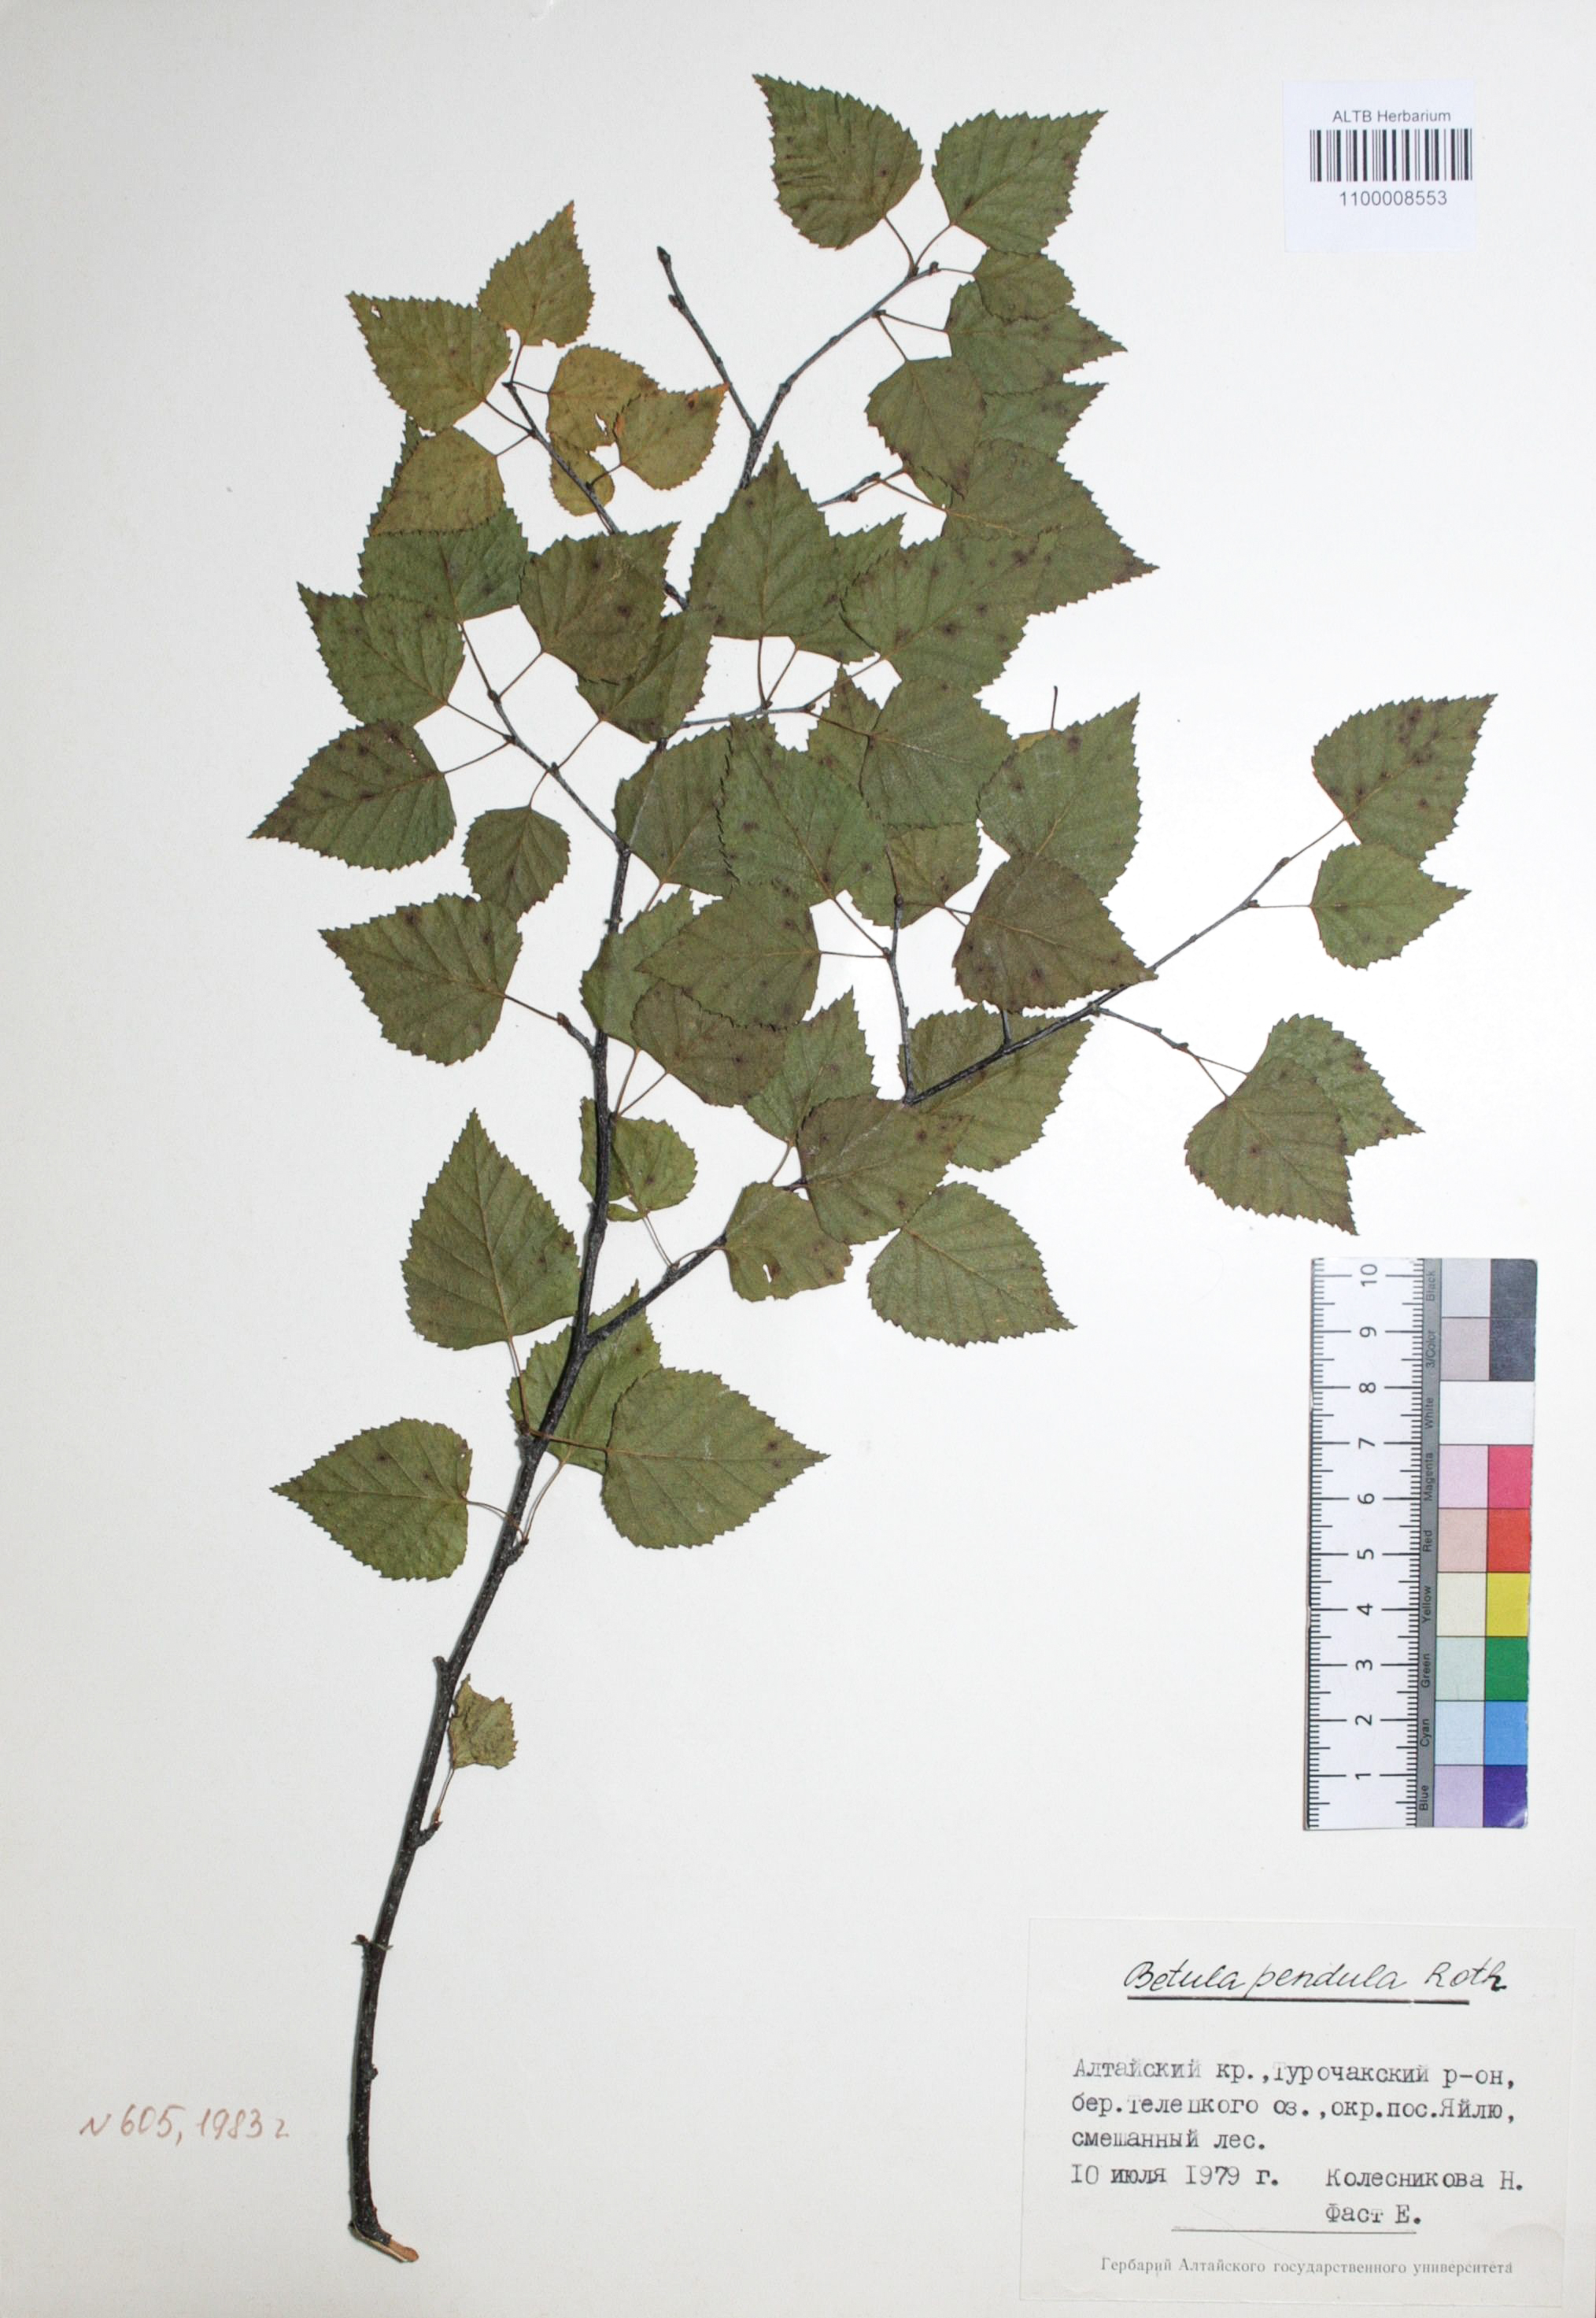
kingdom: Plantae
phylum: Tracheophyta
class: Magnoliopsida
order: Fagales
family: Betulaceae
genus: Betula
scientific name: Betula pendula
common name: Silver birch
